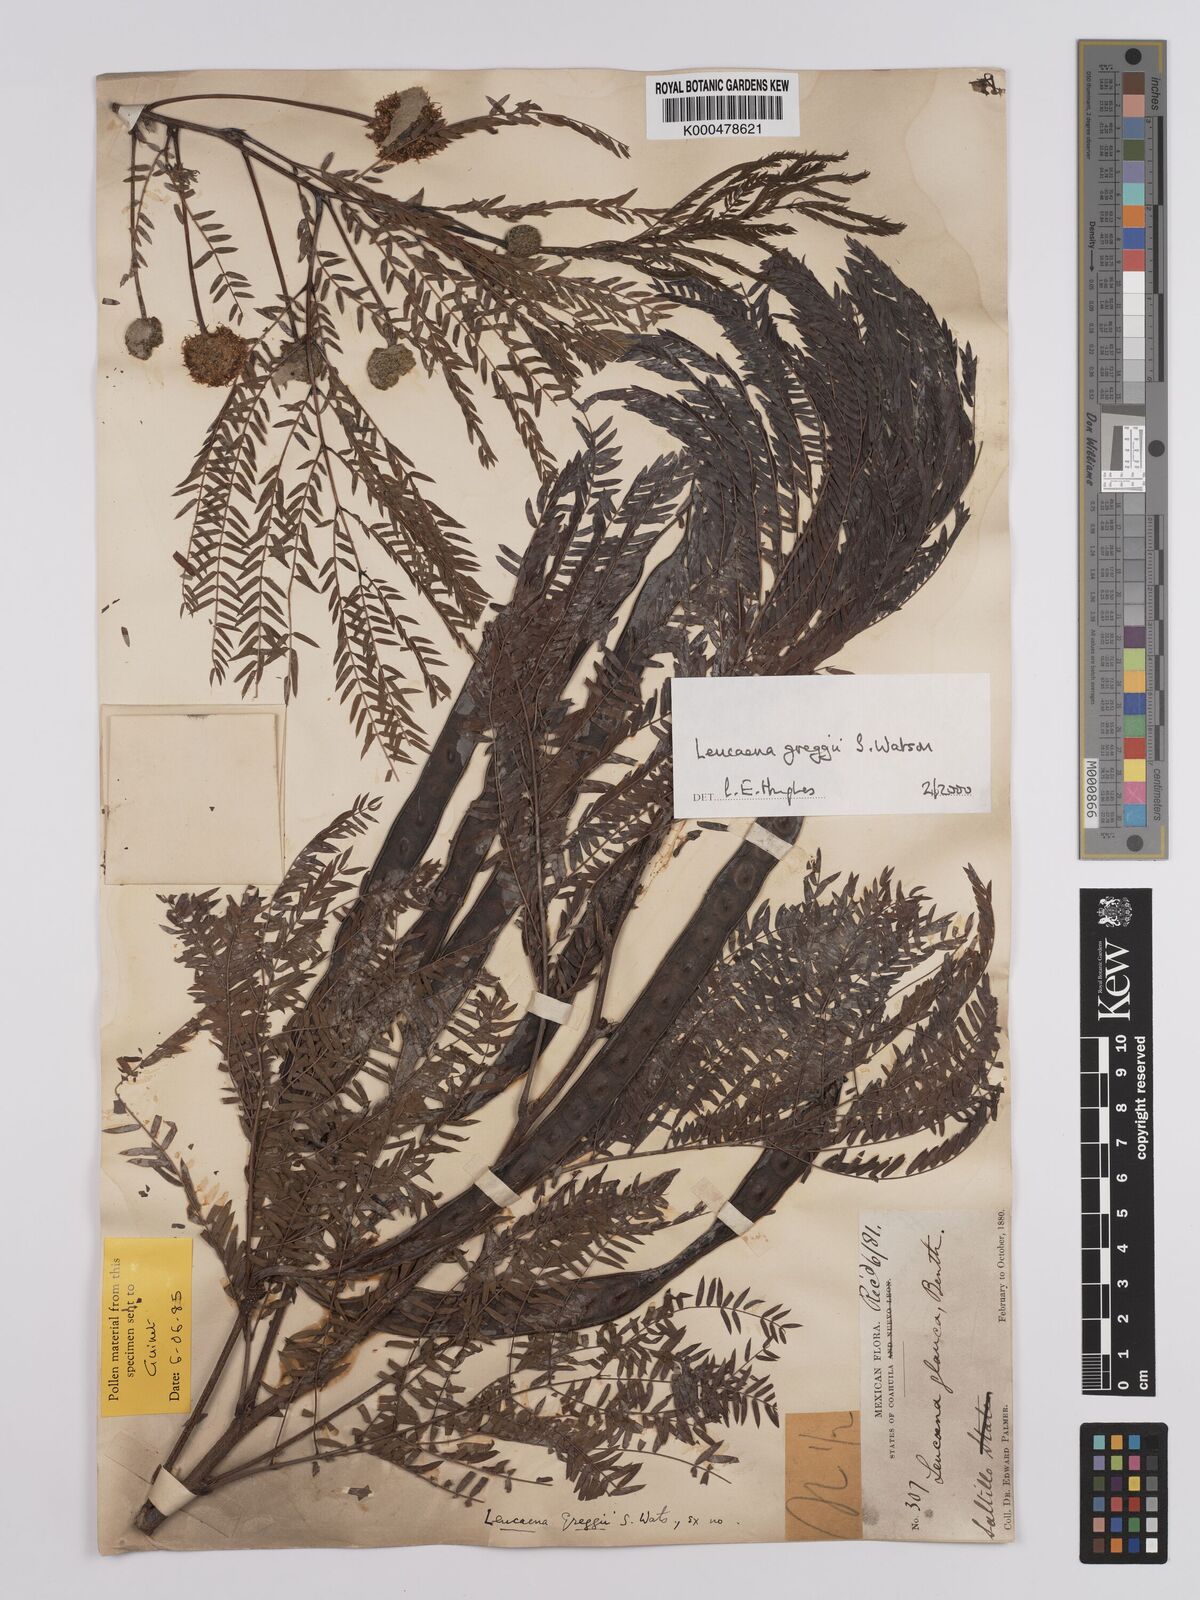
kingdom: Plantae
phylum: Tracheophyta
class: Magnoliopsida
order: Fabales
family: Fabaceae
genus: Leucaena
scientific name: Leucaena greggii
